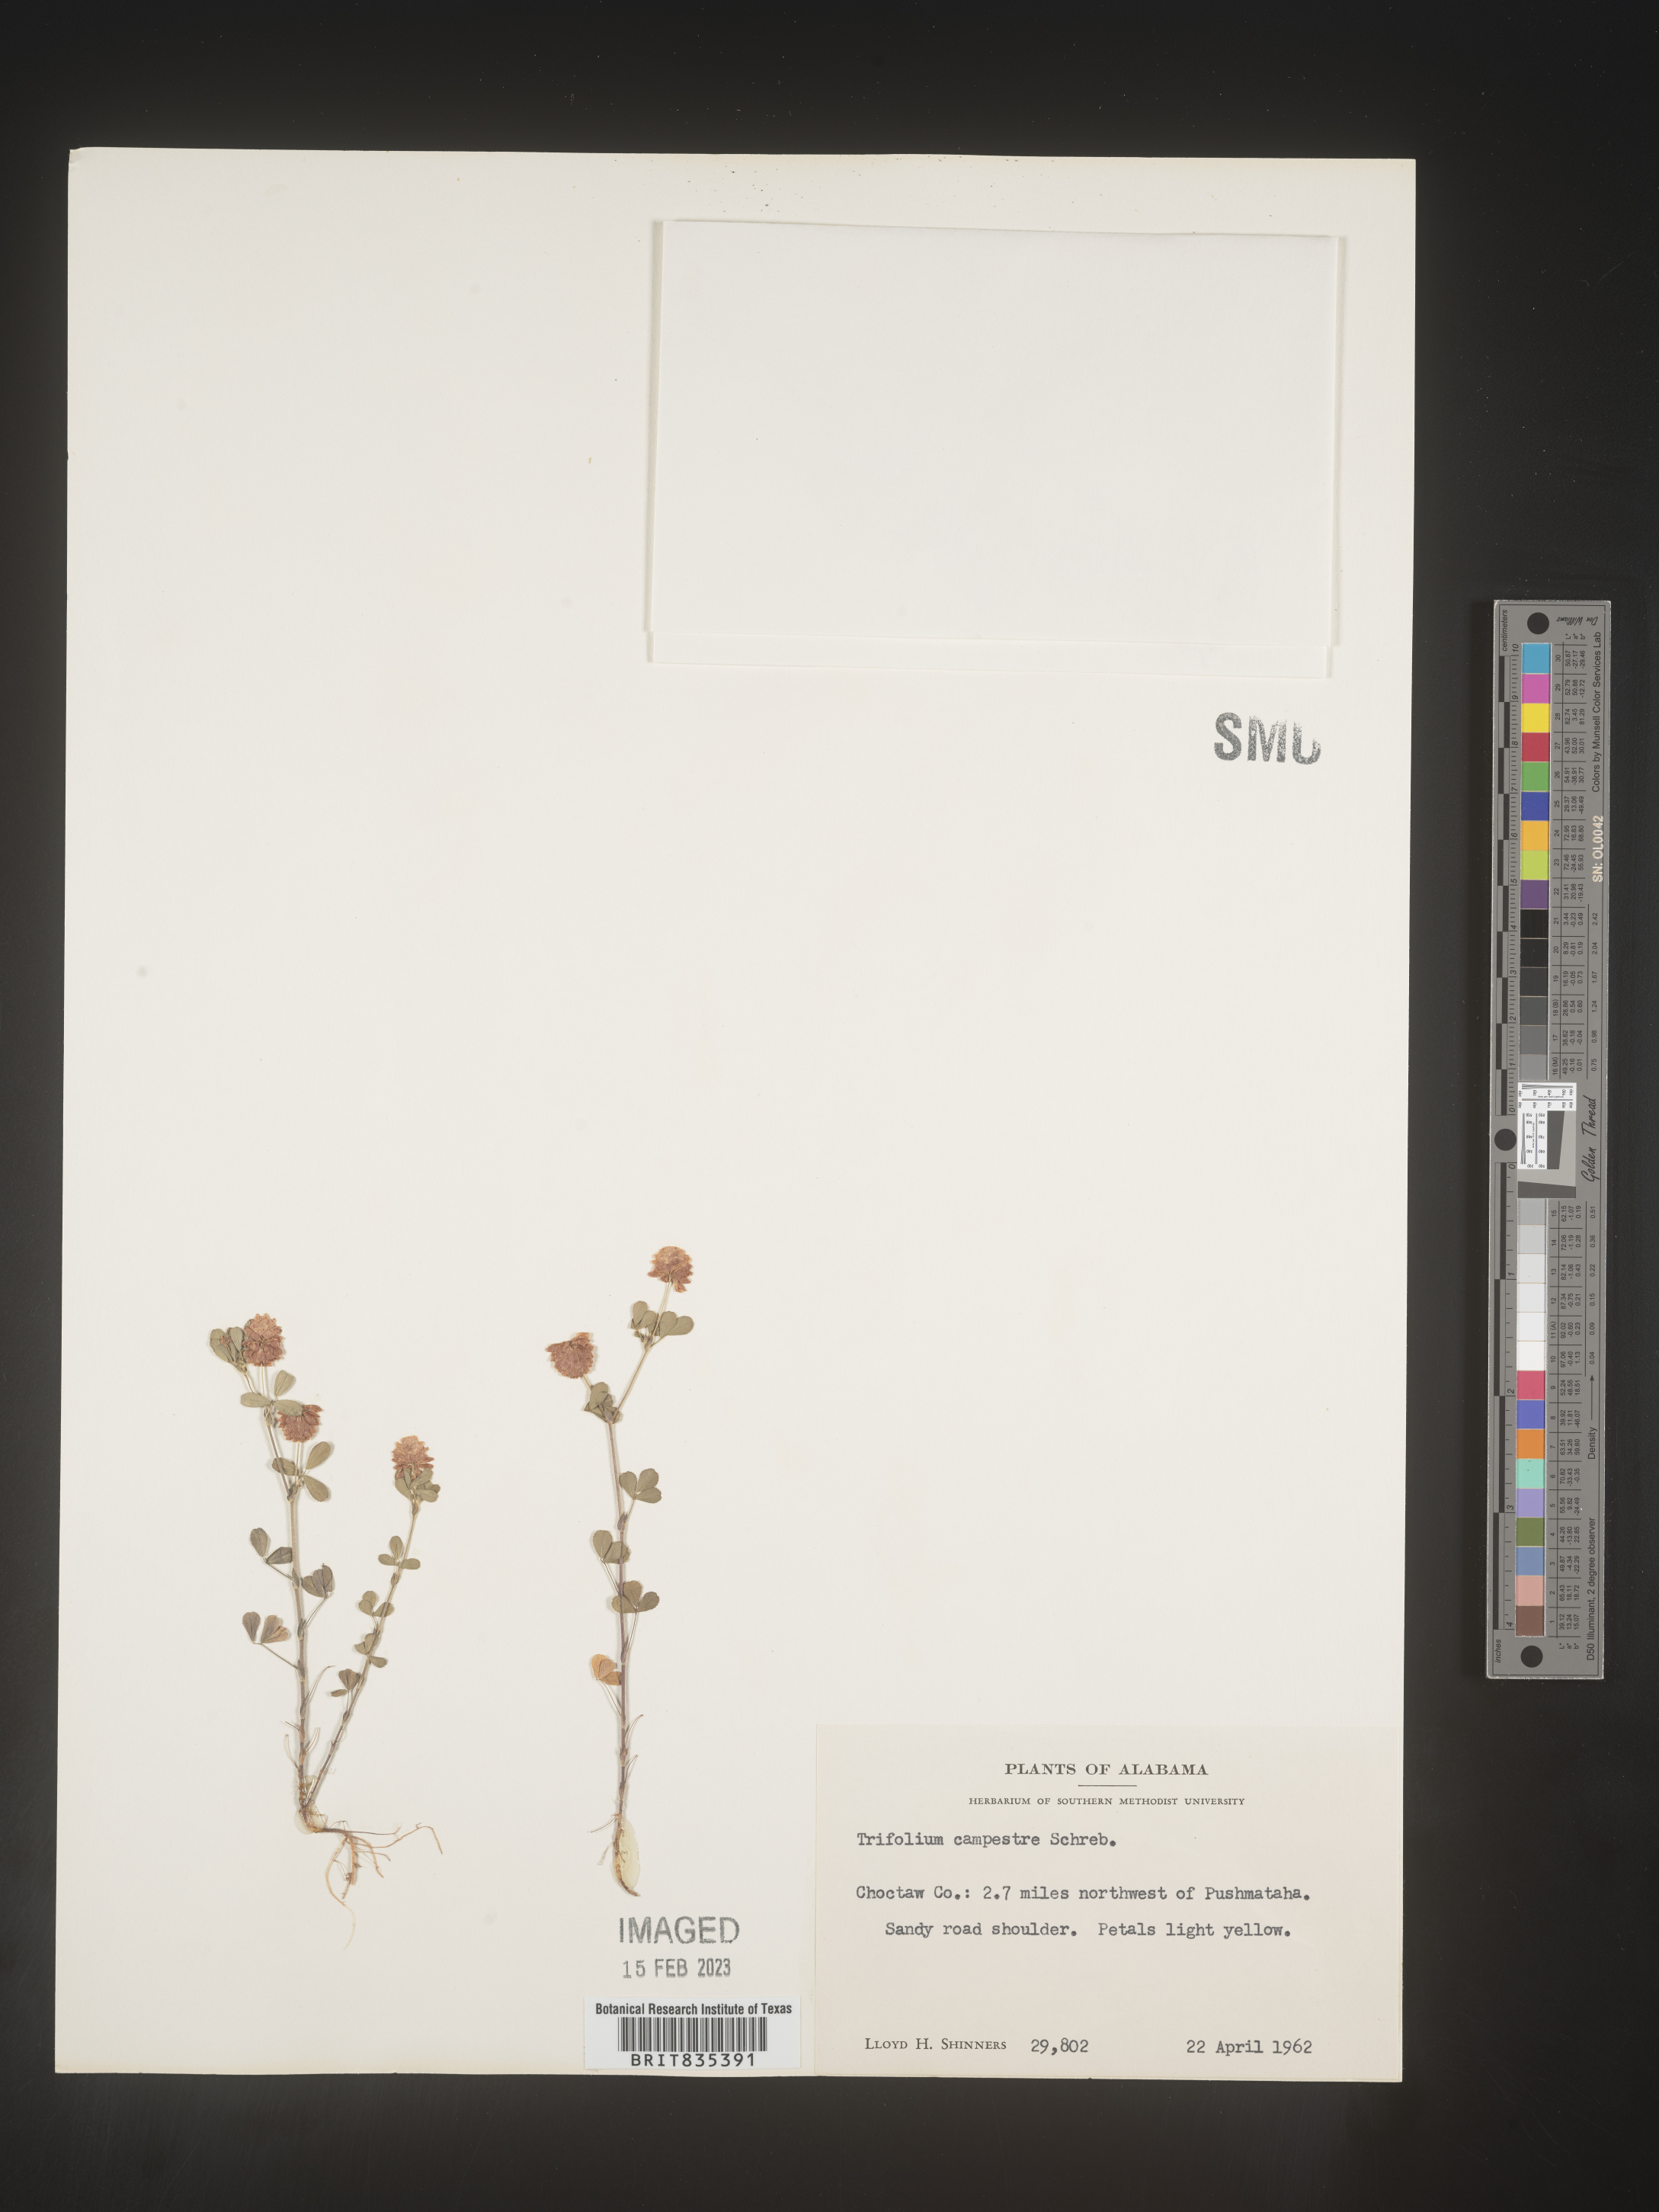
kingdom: Plantae
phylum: Tracheophyta
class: Magnoliopsida
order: Fabales
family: Fabaceae
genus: Trifolium
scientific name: Trifolium campestre
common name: Field clover
